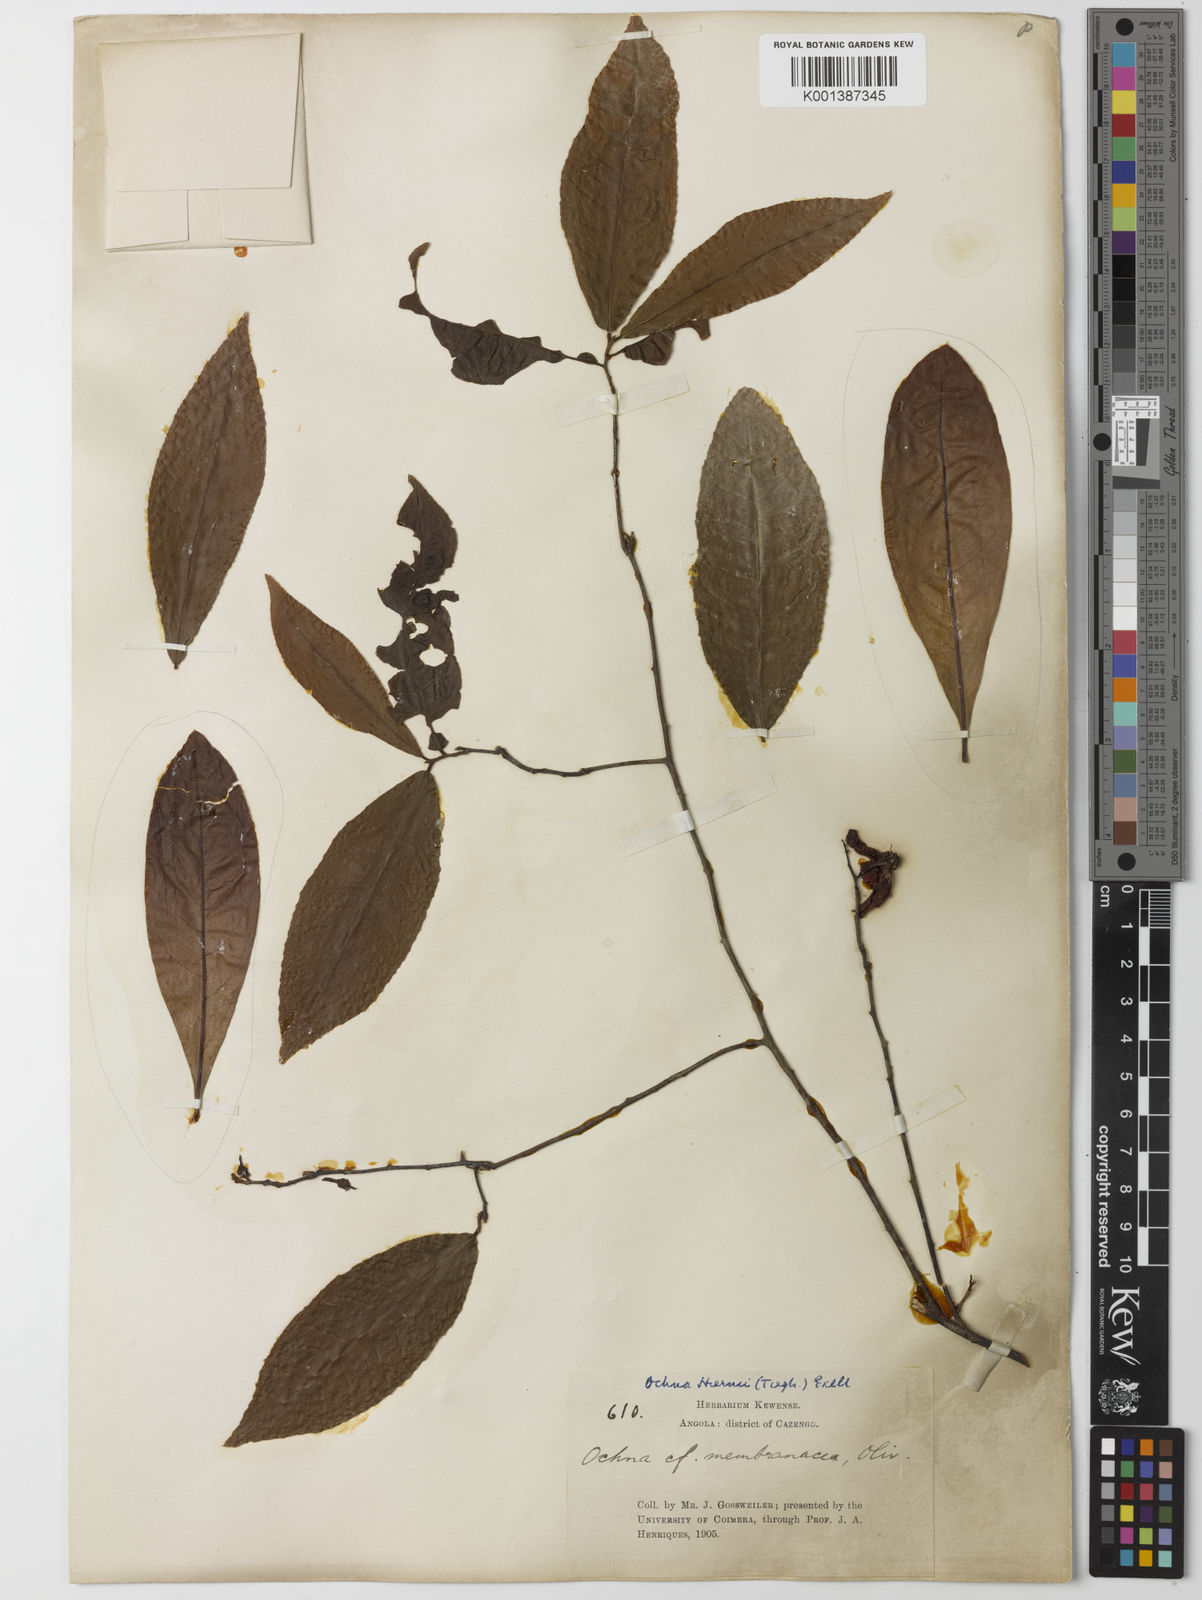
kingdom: Plantae
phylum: Tracheophyta
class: Magnoliopsida
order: Malpighiales
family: Ochnaceae
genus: Ochna
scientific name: Ochna membranacea
